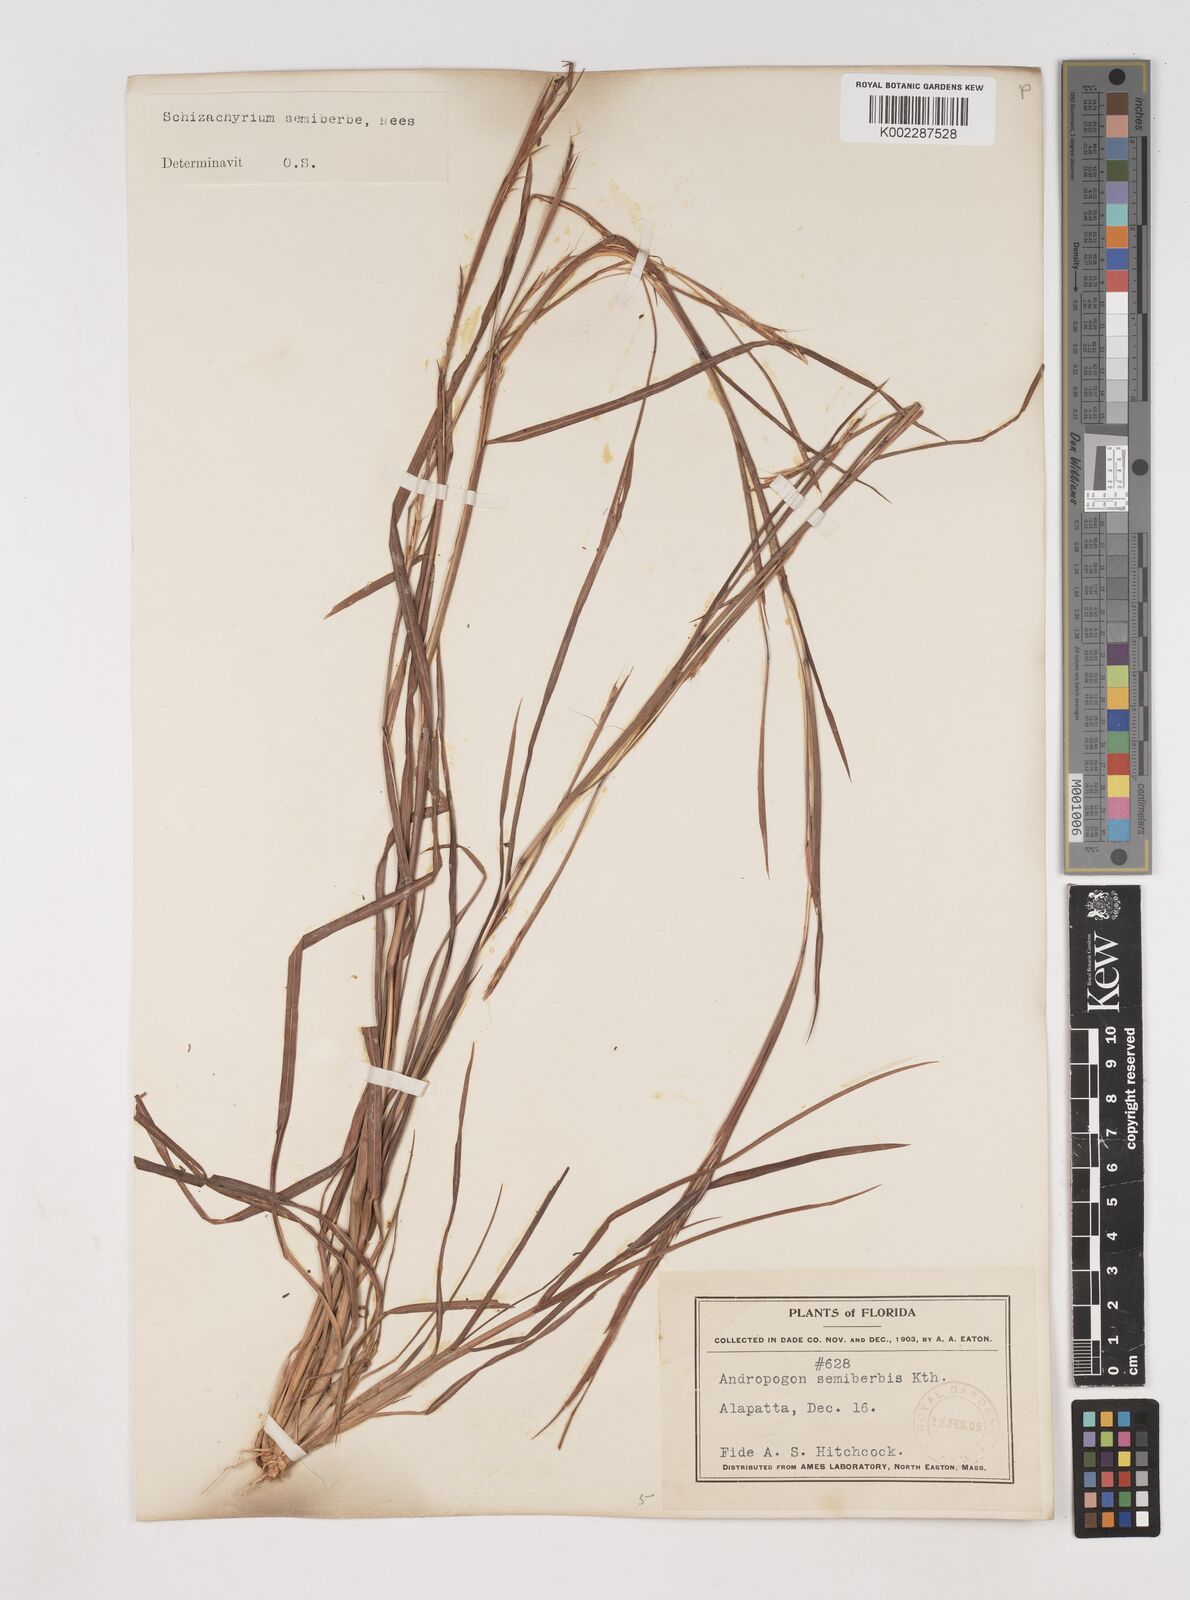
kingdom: Plantae
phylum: Tracheophyta
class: Liliopsida
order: Poales
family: Poaceae
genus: Schizachyrium
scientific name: Schizachyrium sanguineum
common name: Crimson bluestem
